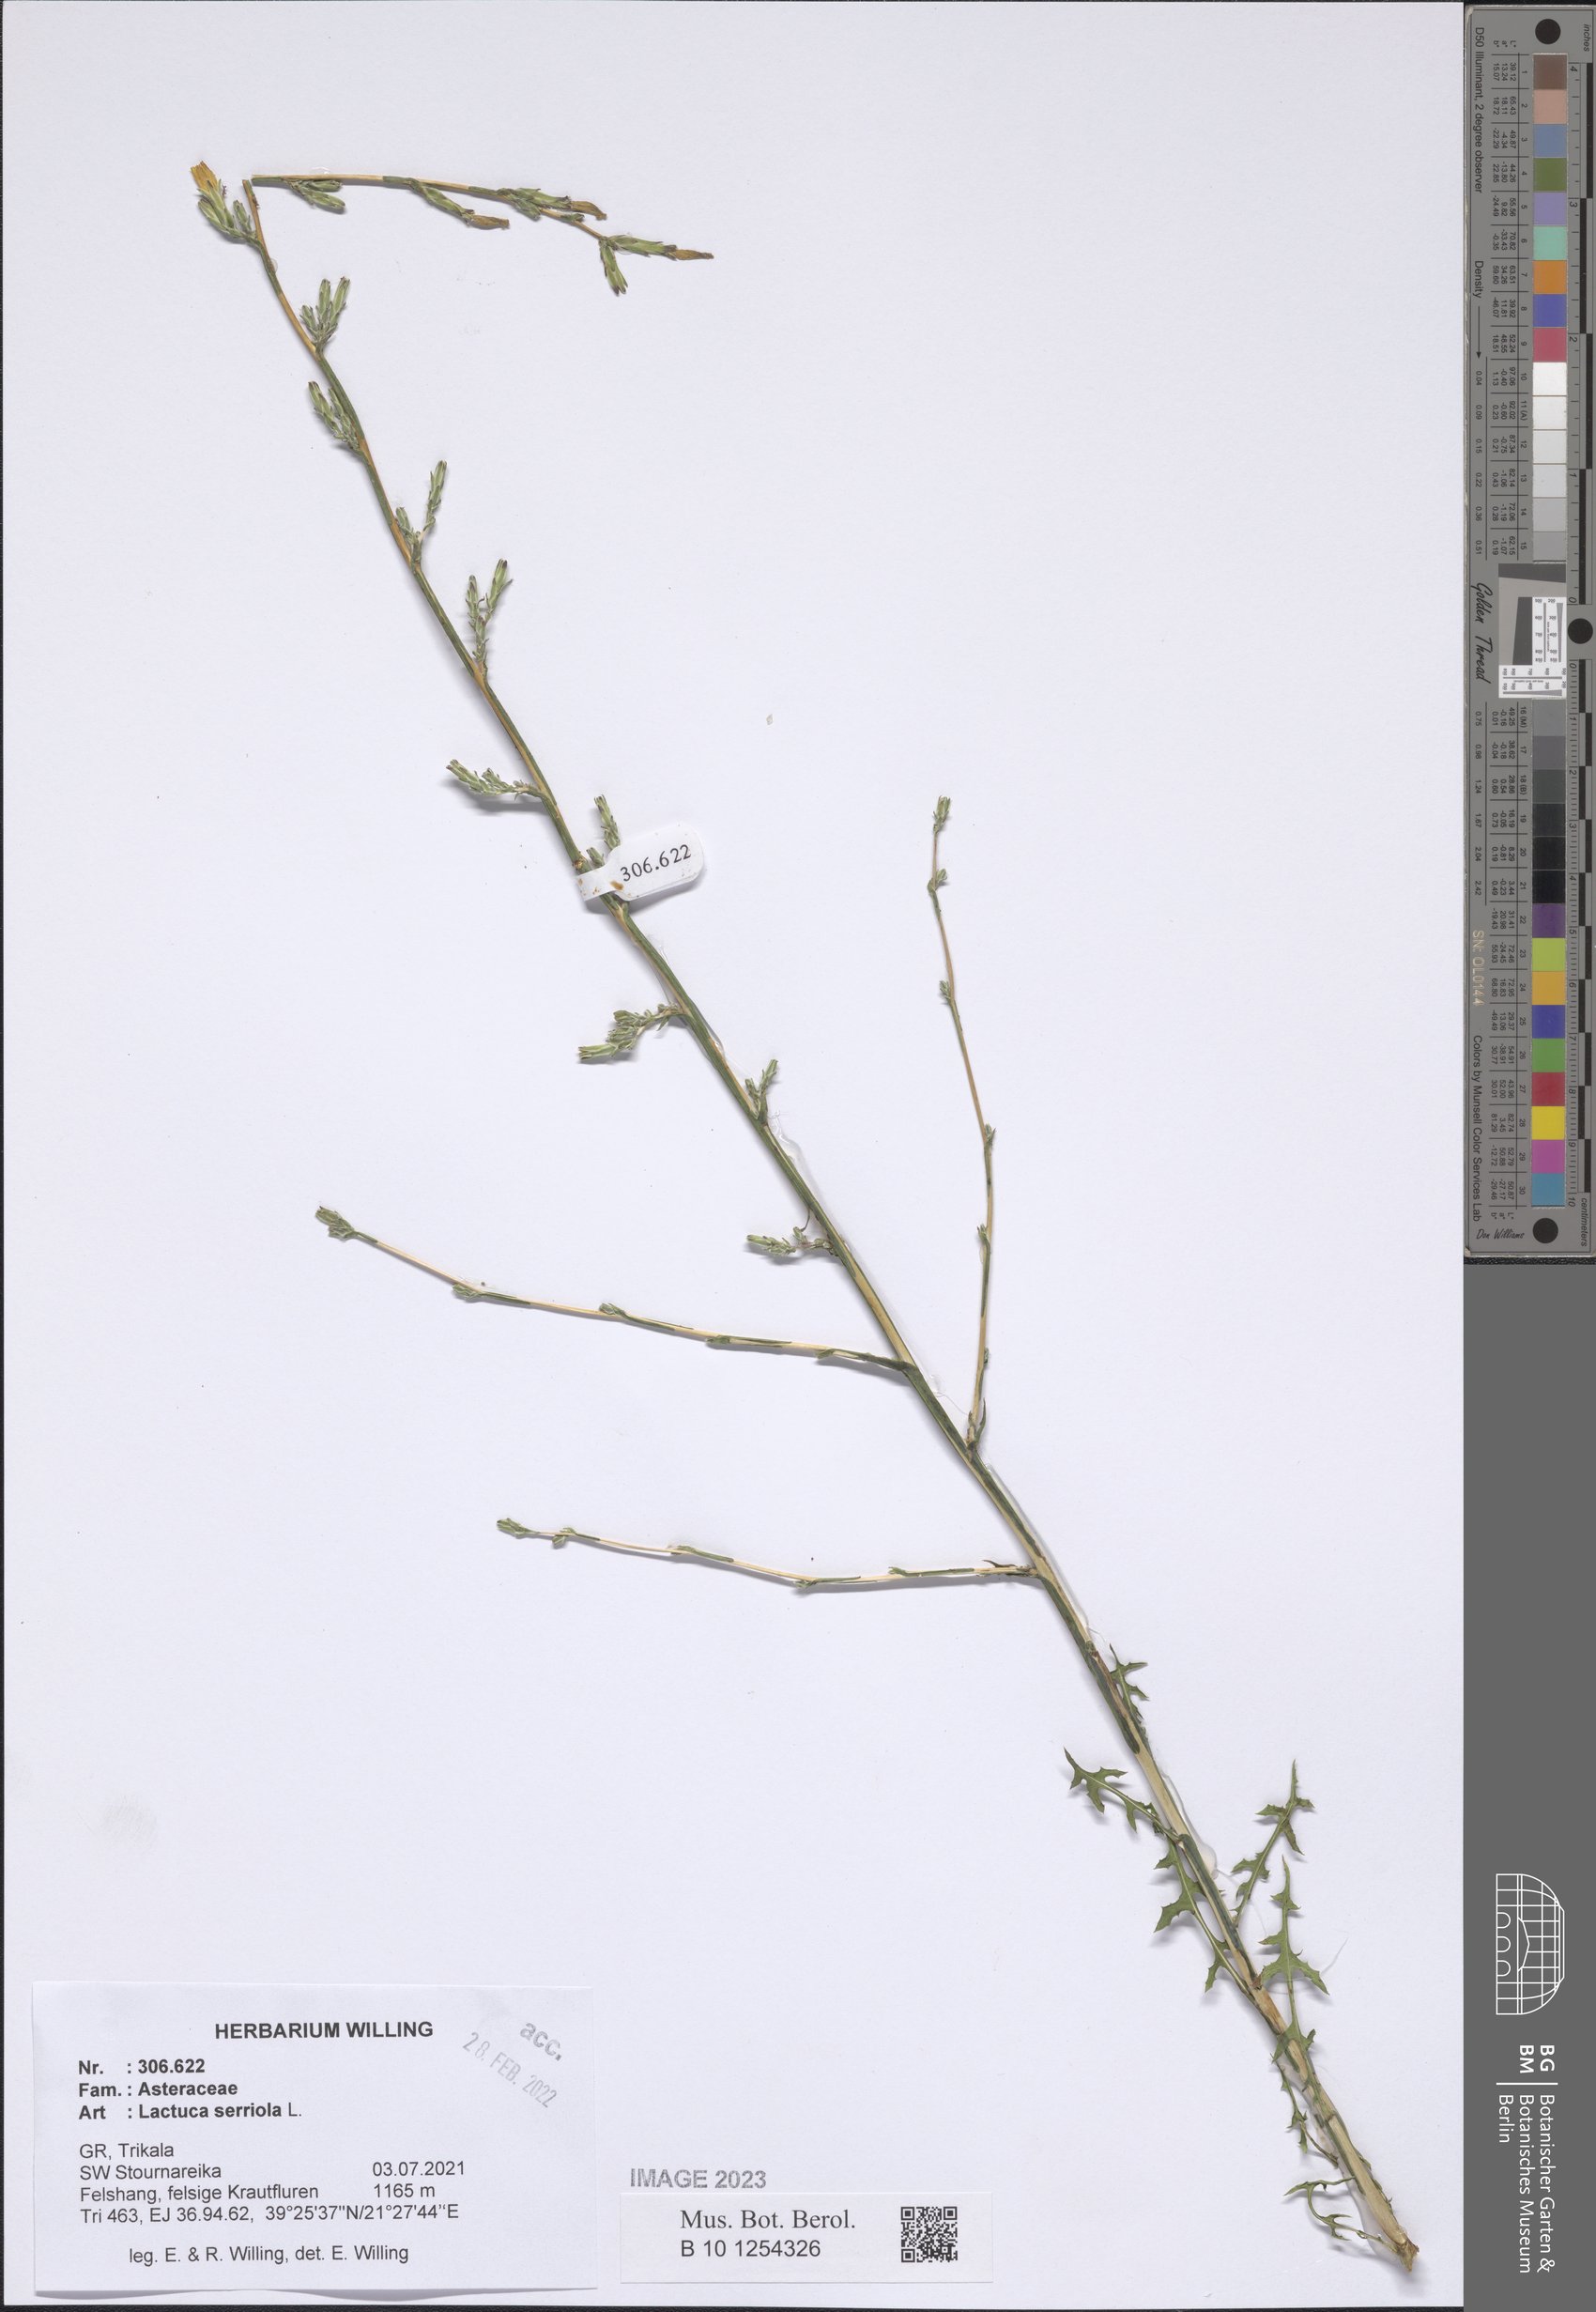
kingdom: Plantae
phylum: Tracheophyta
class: Magnoliopsida
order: Asterales
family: Asteraceae
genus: Lactuca
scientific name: Lactuca serriola
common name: Prickly lettuce
